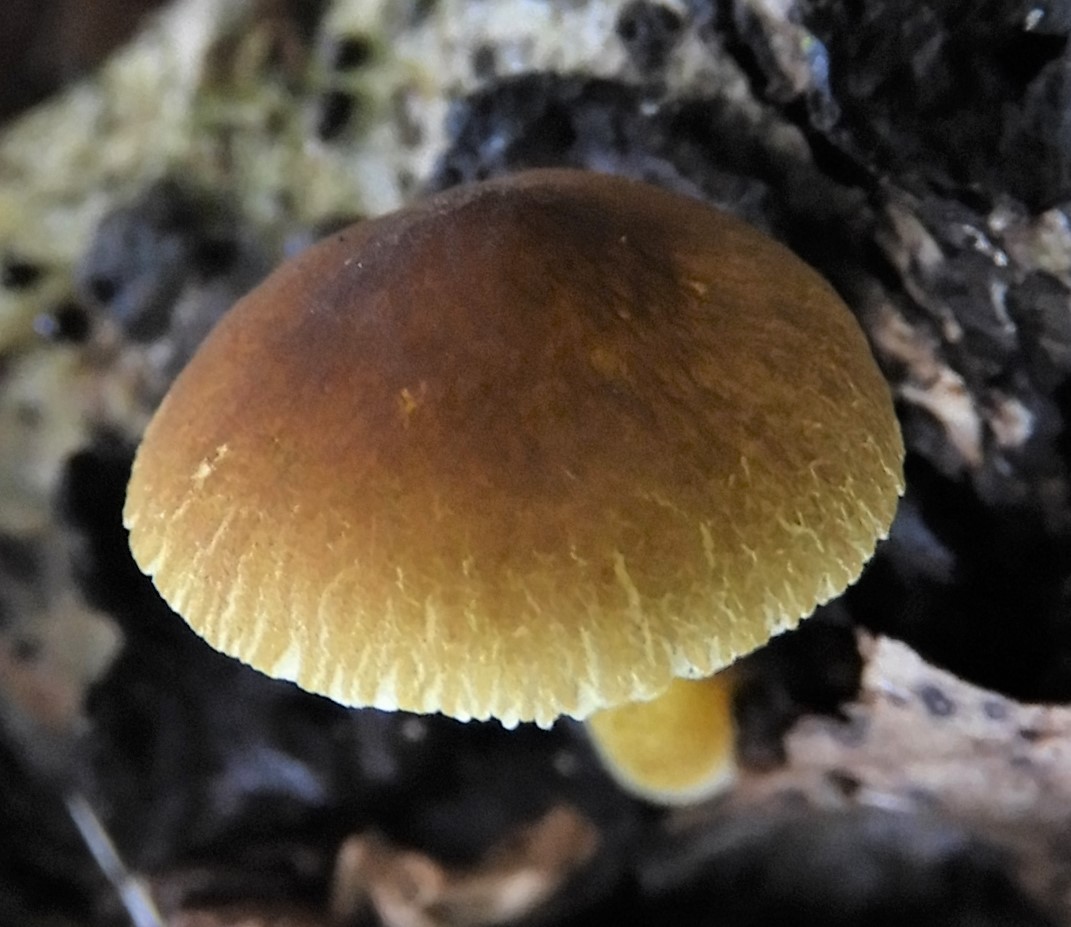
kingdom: Fungi
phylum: Basidiomycota
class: Agaricomycetes
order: Agaricales
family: Pluteaceae
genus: Pluteus
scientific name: Pluteus romellii
